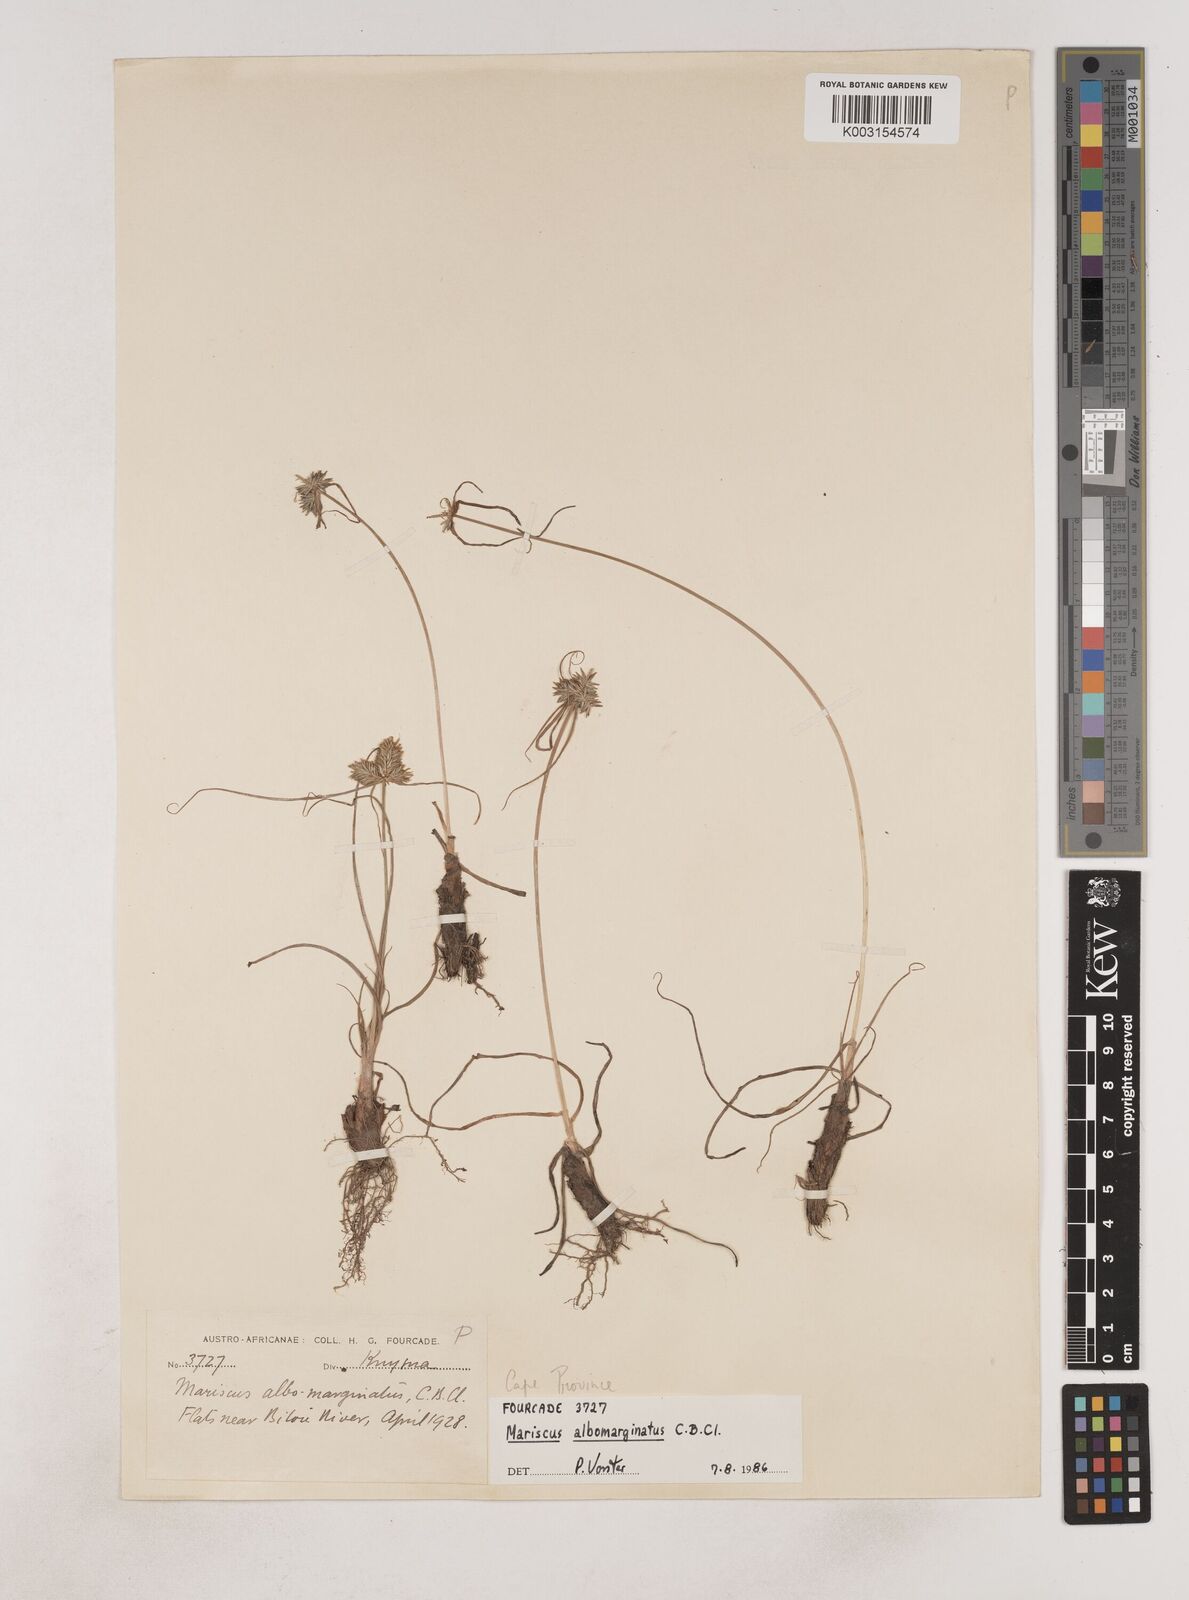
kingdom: Plantae
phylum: Tracheophyta
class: Liliopsida
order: Poales
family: Cyperaceae
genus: Cyperus
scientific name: Cyperus indecorus
